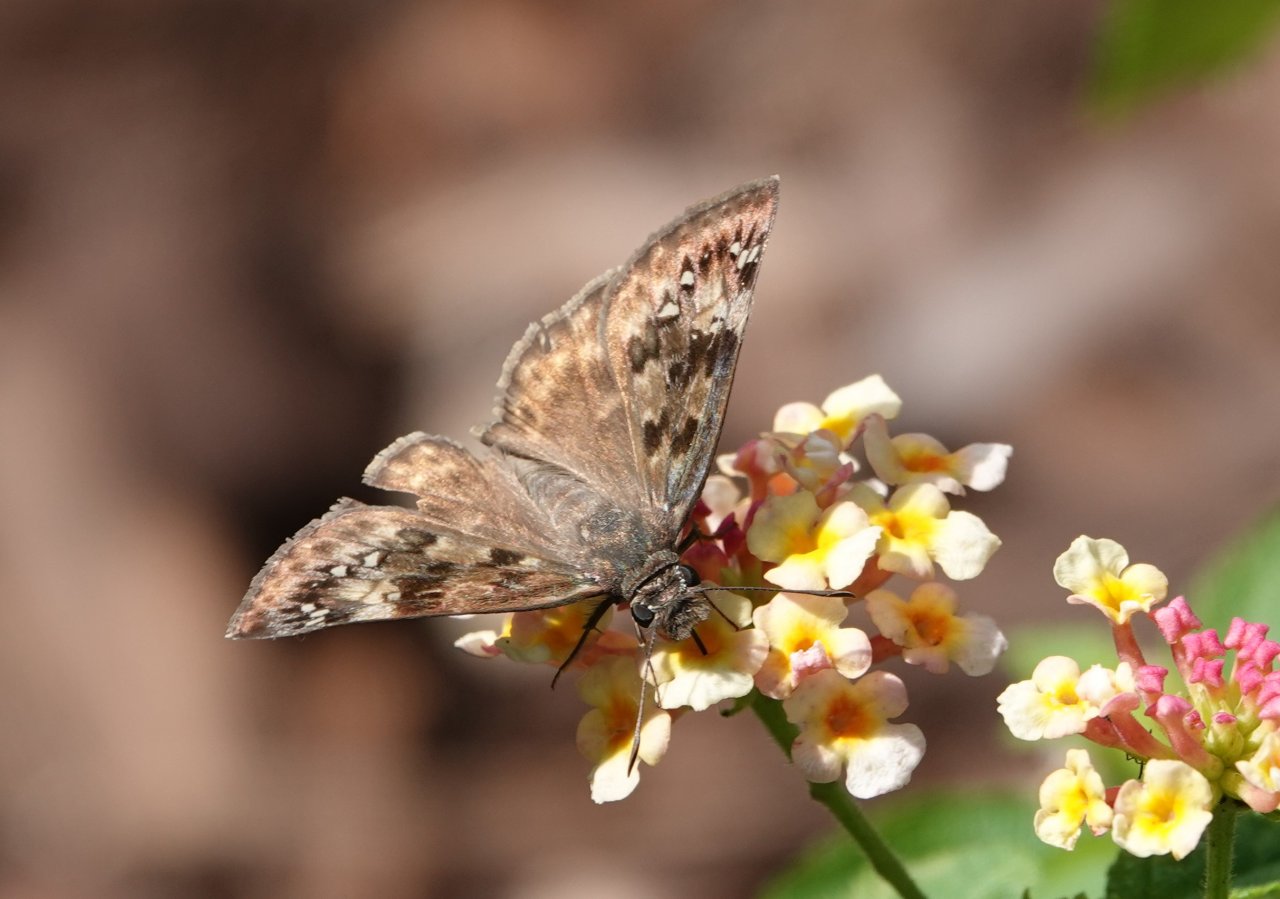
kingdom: Animalia
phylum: Arthropoda
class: Insecta
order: Lepidoptera
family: Hesperiidae
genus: Gesta
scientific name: Gesta
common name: Horace's Duskywing
